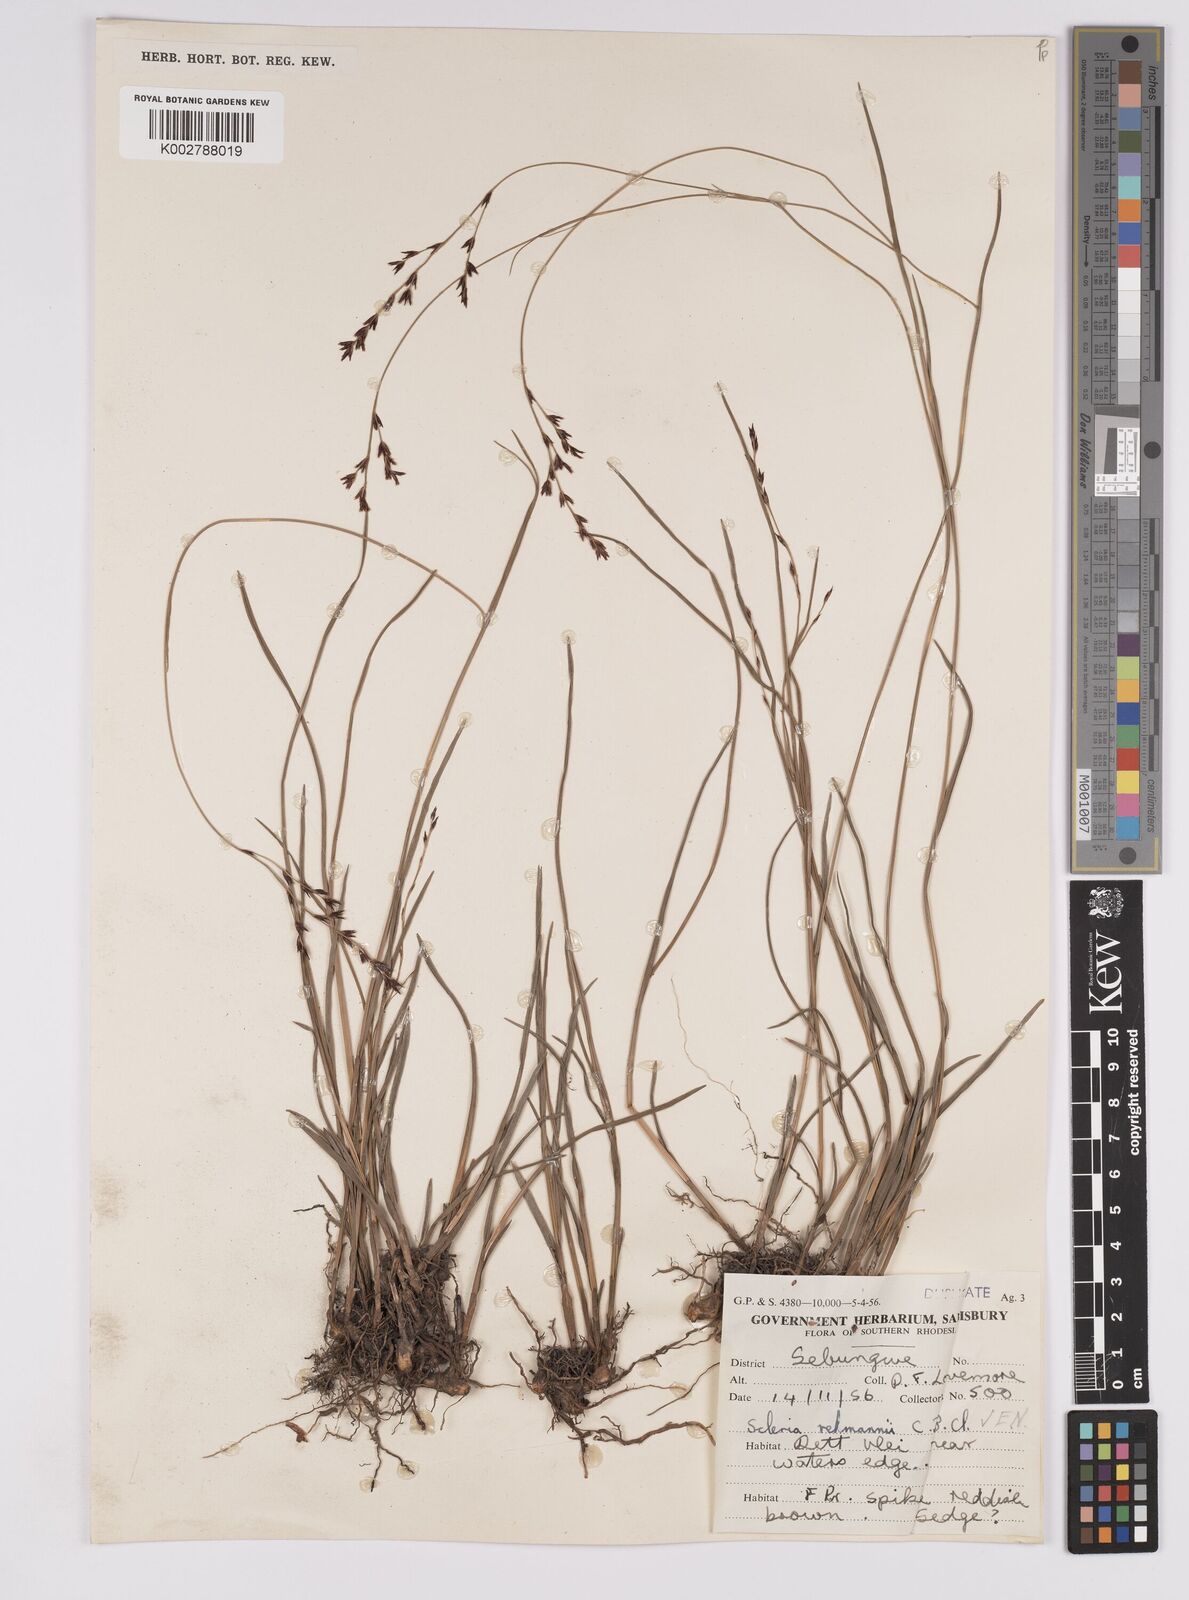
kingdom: Plantae
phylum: Tracheophyta
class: Liliopsida
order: Poales
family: Cyperaceae
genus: Scleria
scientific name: Scleria rehmannii
